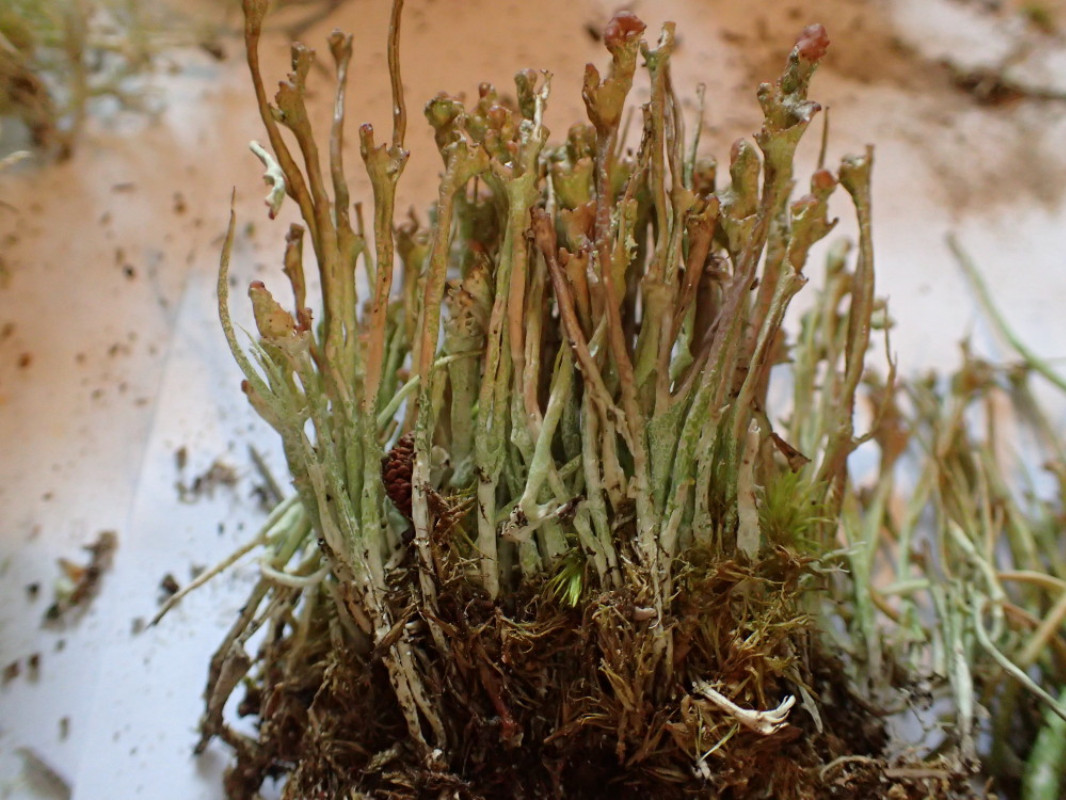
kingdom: Fungi
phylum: Ascomycota
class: Lecanoromycetes
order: Lecanorales
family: Cladoniaceae
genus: Cladonia
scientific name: Cladonia gracilis
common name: slank bægerlav
